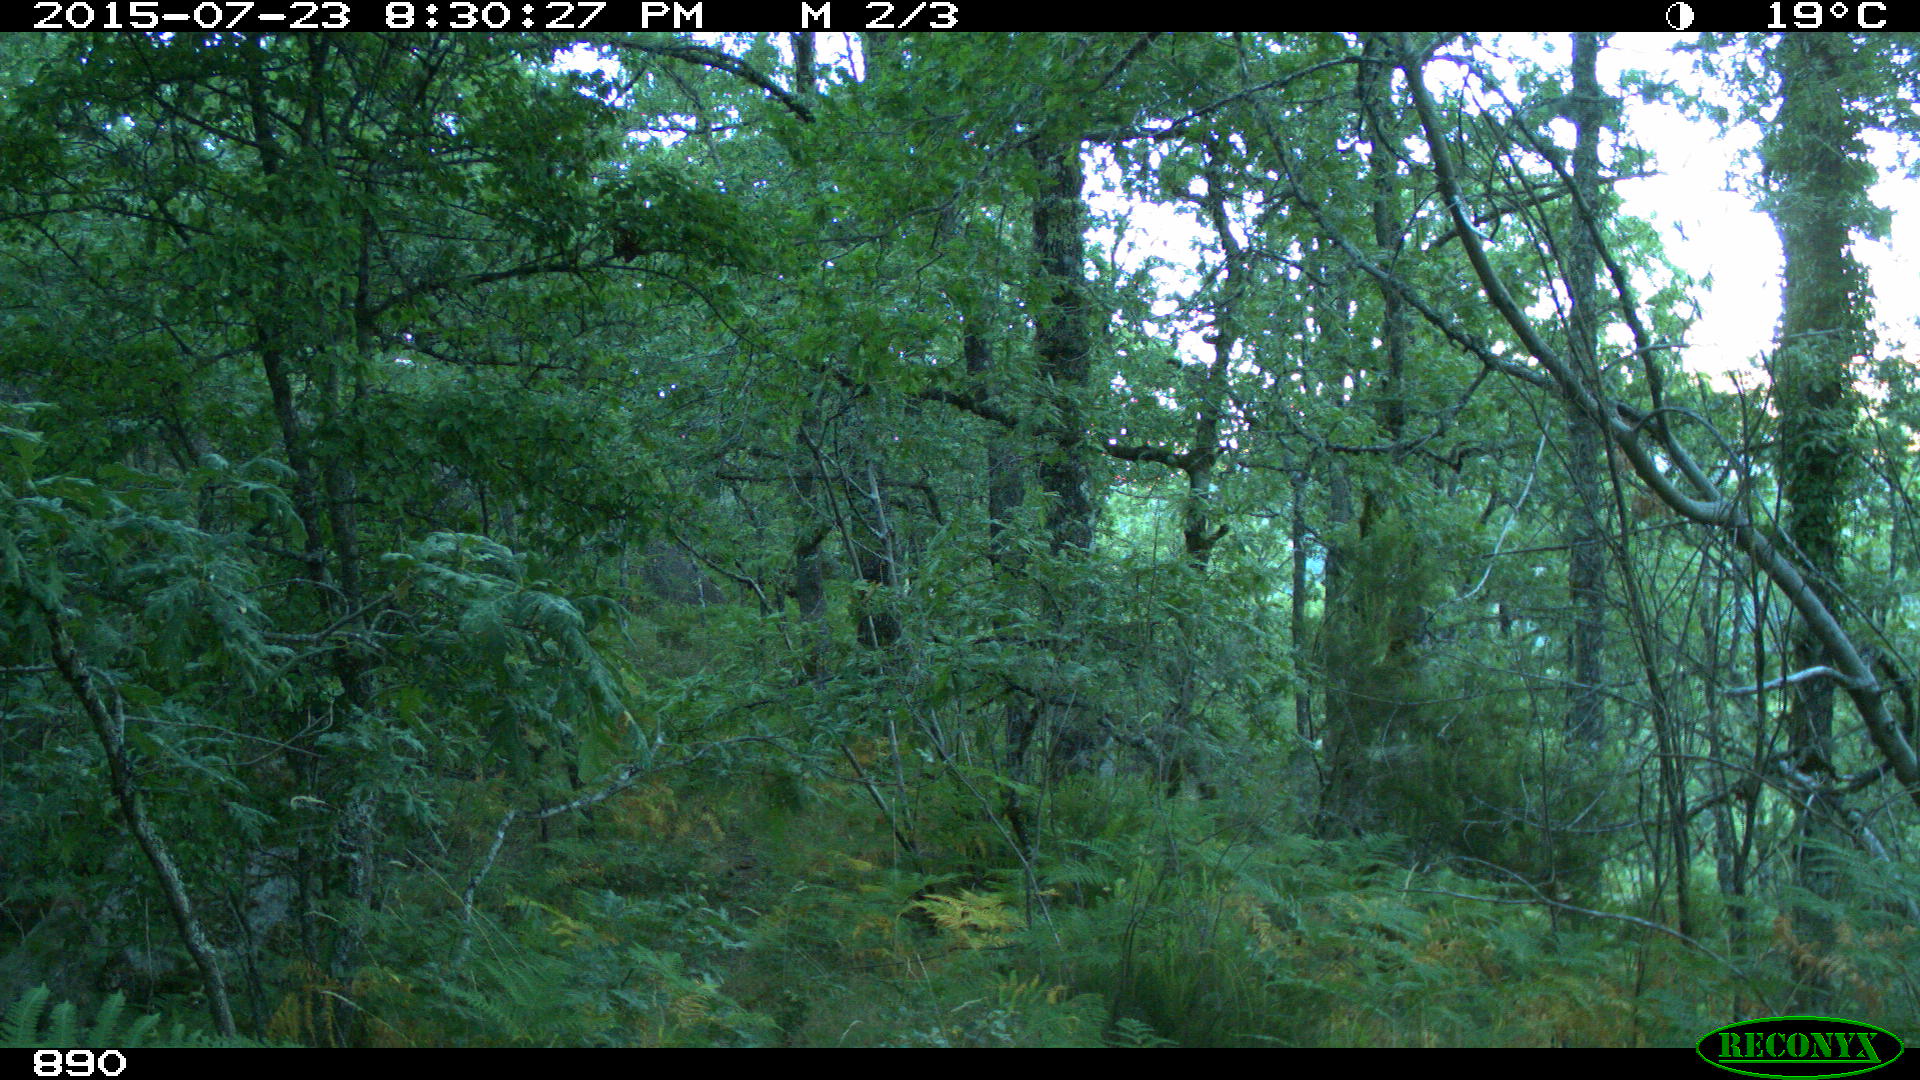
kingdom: Animalia
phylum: Chordata
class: Mammalia
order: Artiodactyla
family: Cervidae
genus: Capreolus
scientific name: Capreolus capreolus
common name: Western roe deer
